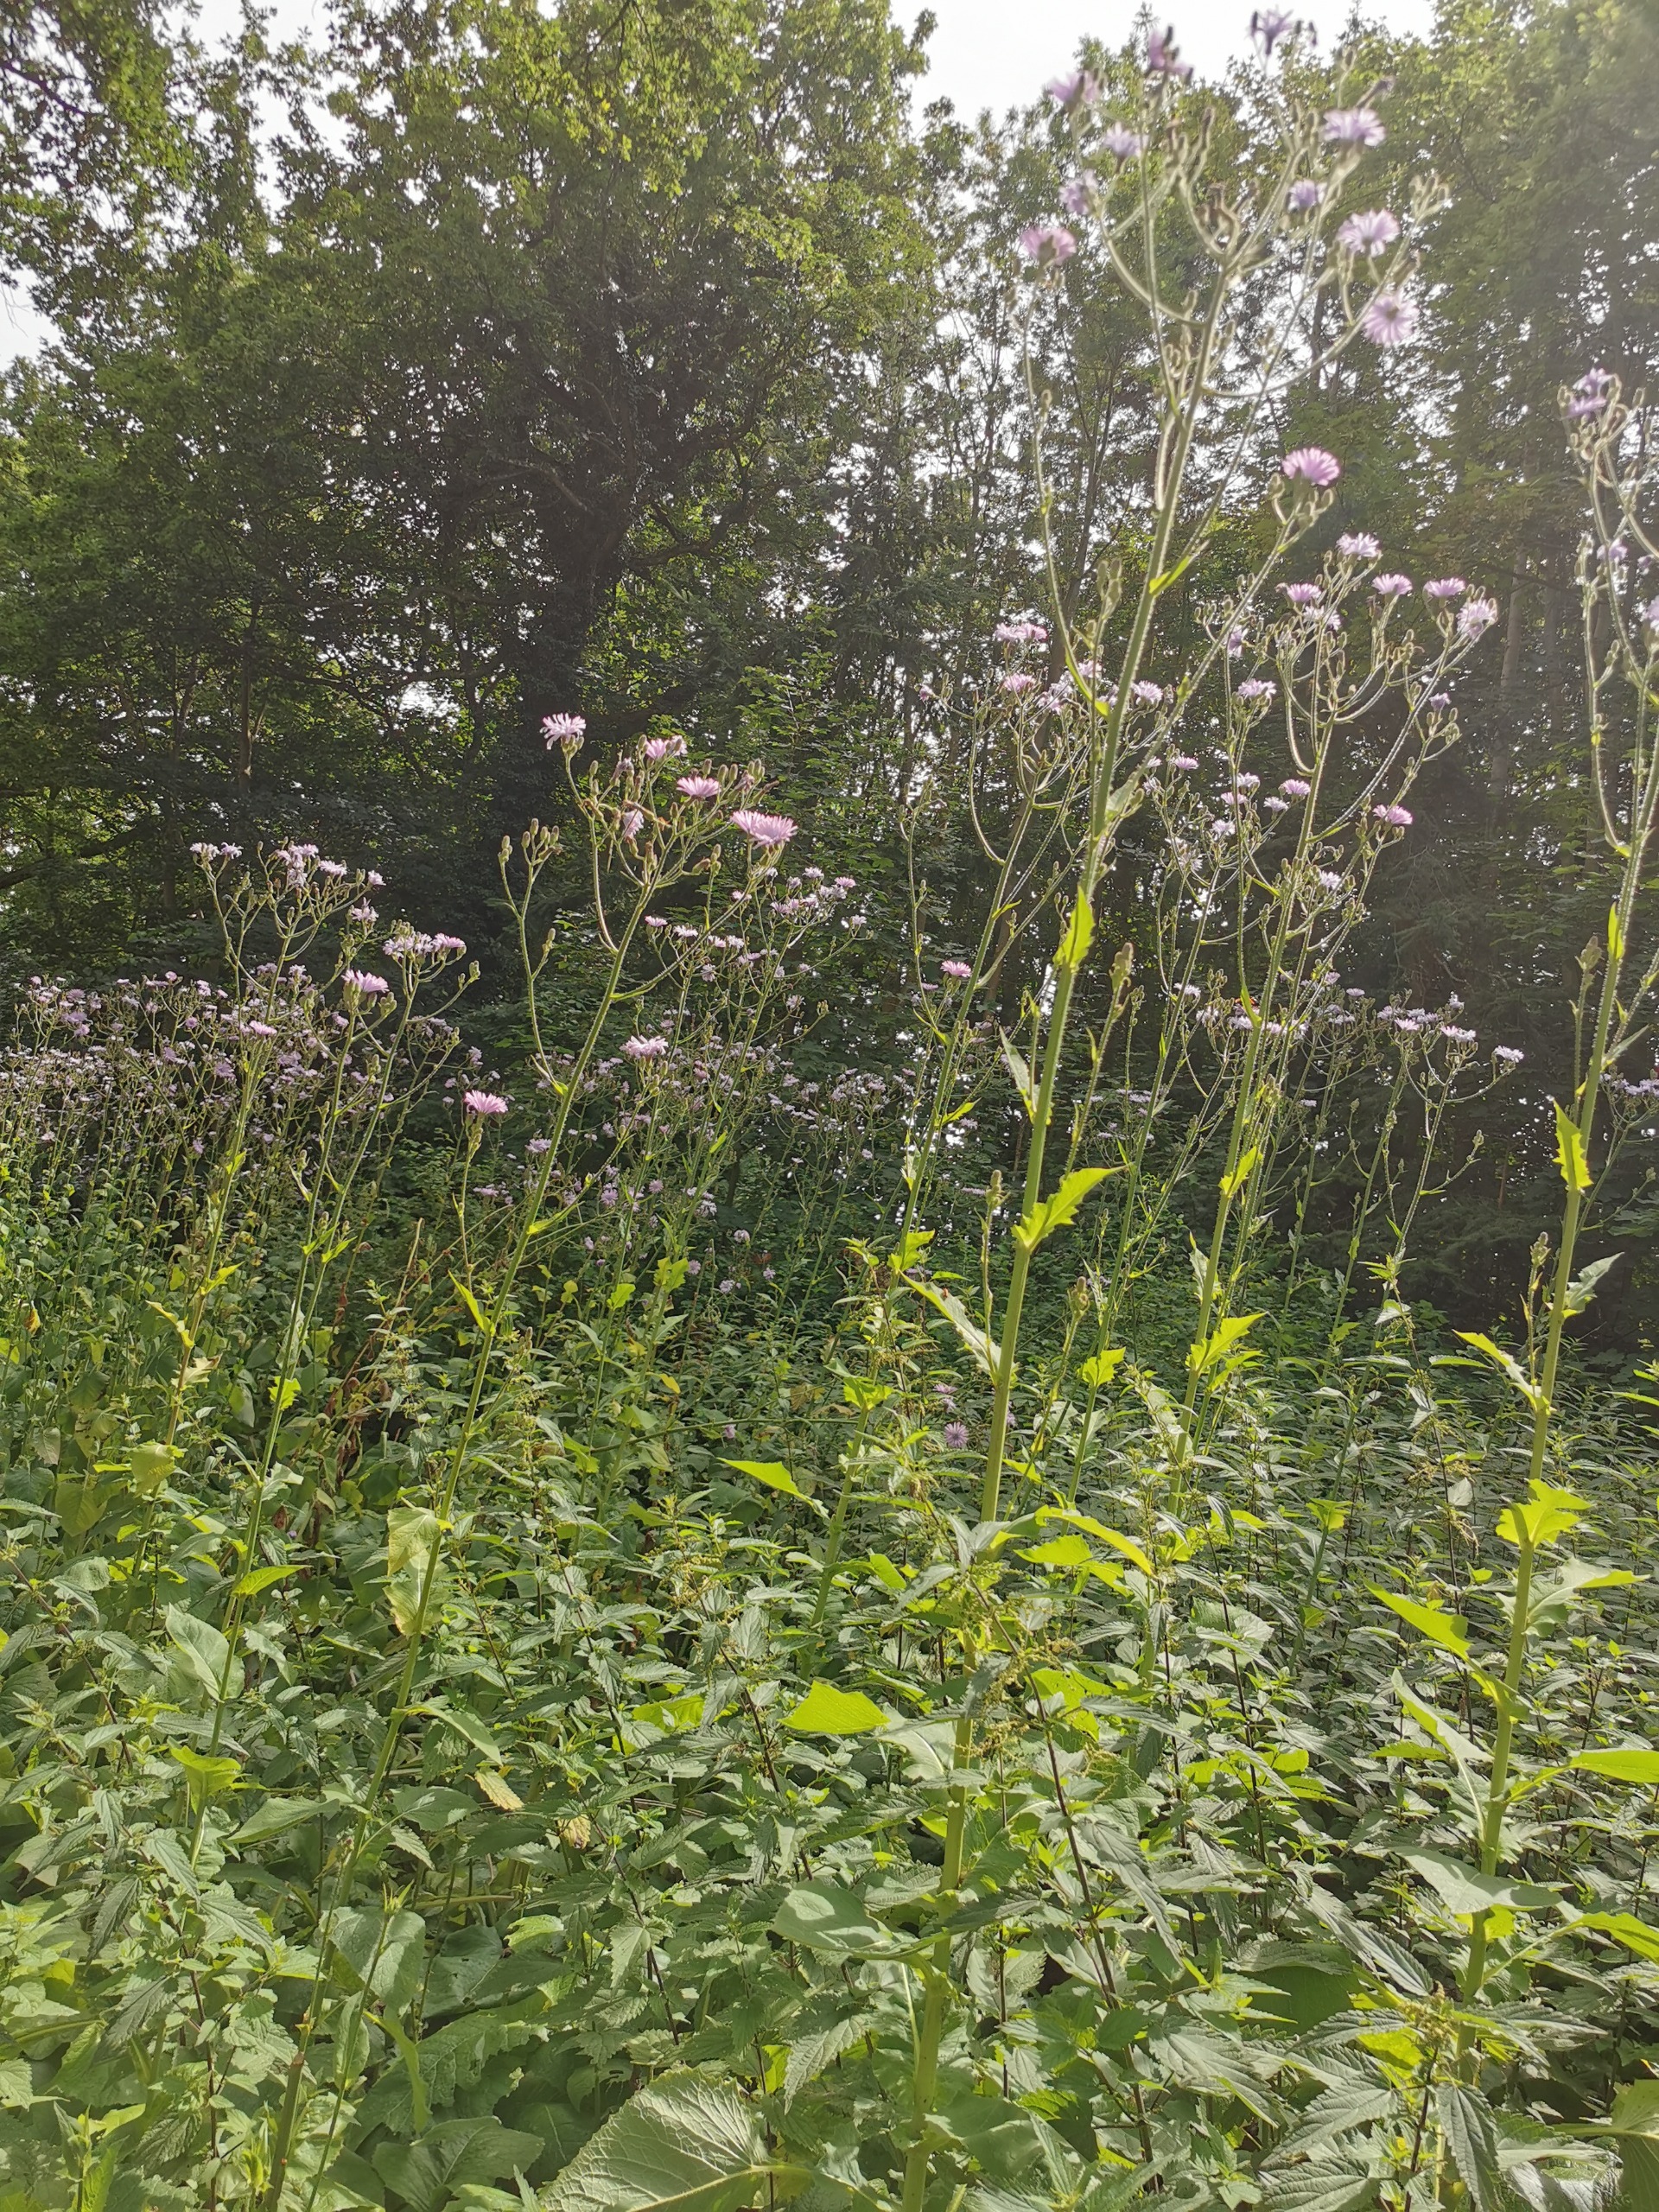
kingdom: Plantae
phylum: Tracheophyta
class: Magnoliopsida
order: Asterales
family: Asteraceae
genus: Lactuca
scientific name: Lactuca macrophylla
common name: Kæmpe-salat
